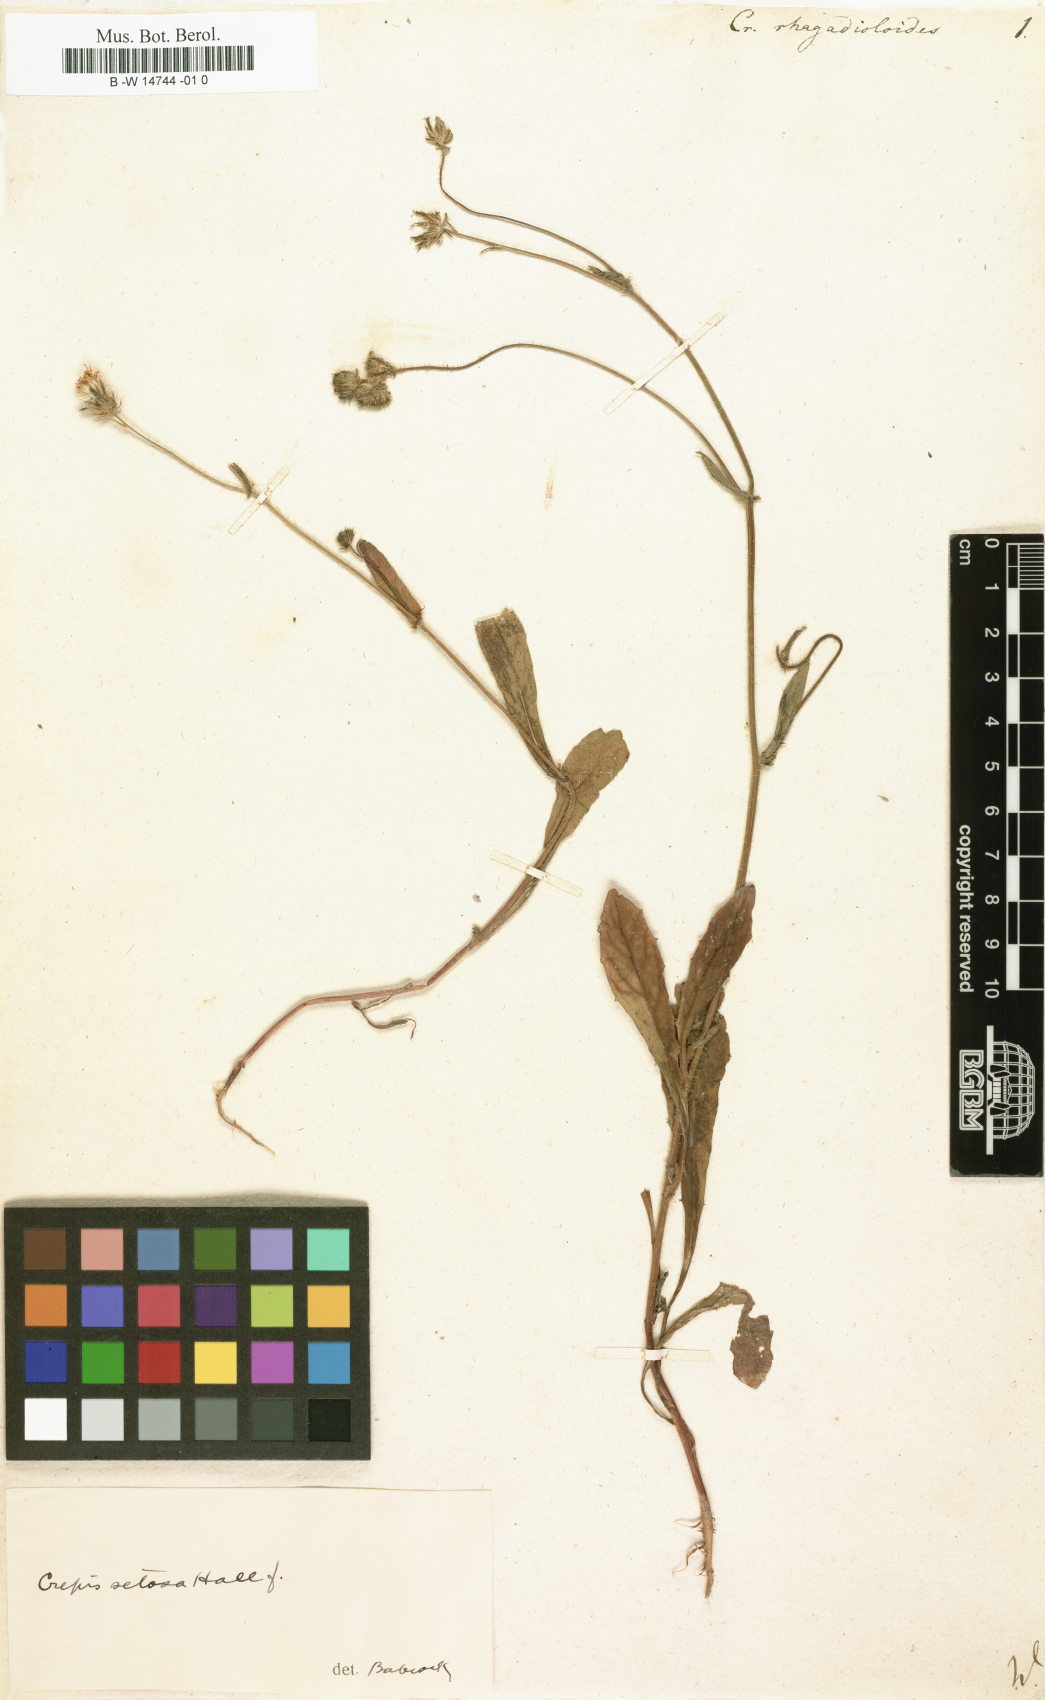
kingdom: Plantae
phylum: Tracheophyta
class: Magnoliopsida
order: Asterales
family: Asteraceae
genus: Picris
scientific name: Picris rhagadioloides
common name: Oxtongue
